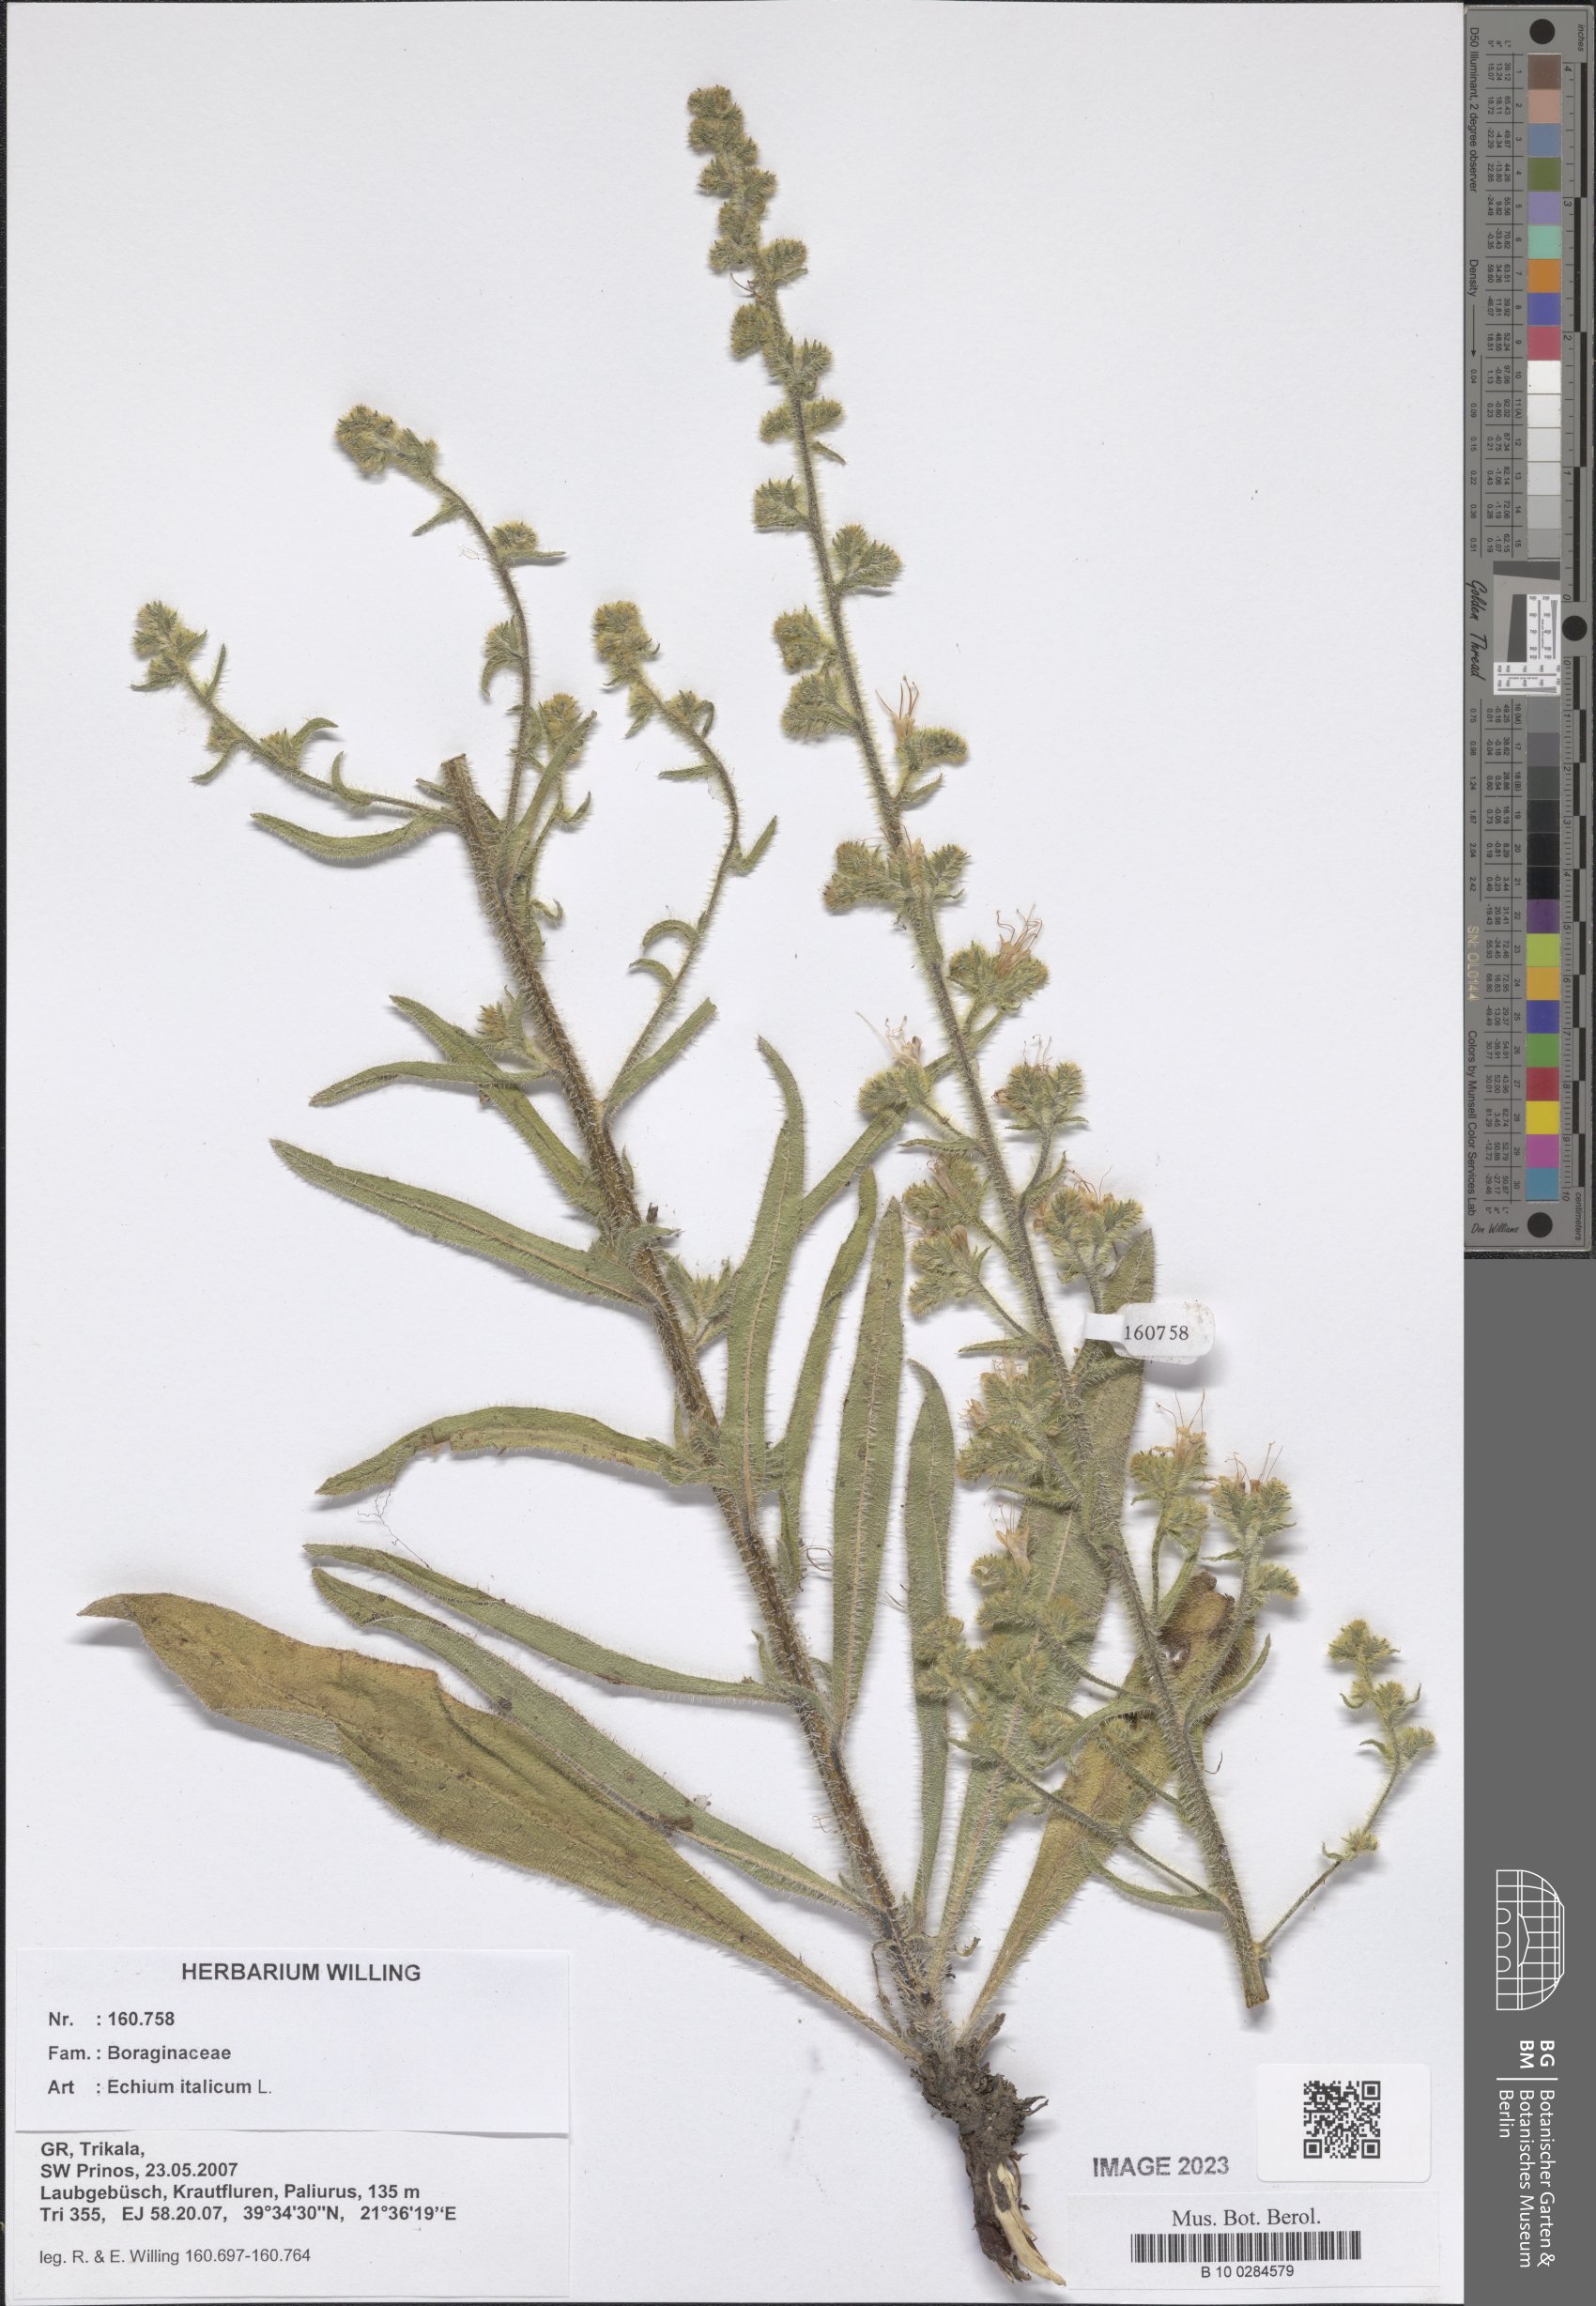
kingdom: Plantae
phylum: Tracheophyta
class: Magnoliopsida
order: Boraginales
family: Boraginaceae
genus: Echium
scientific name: Echium italicum
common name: Italian viper's bugloss
